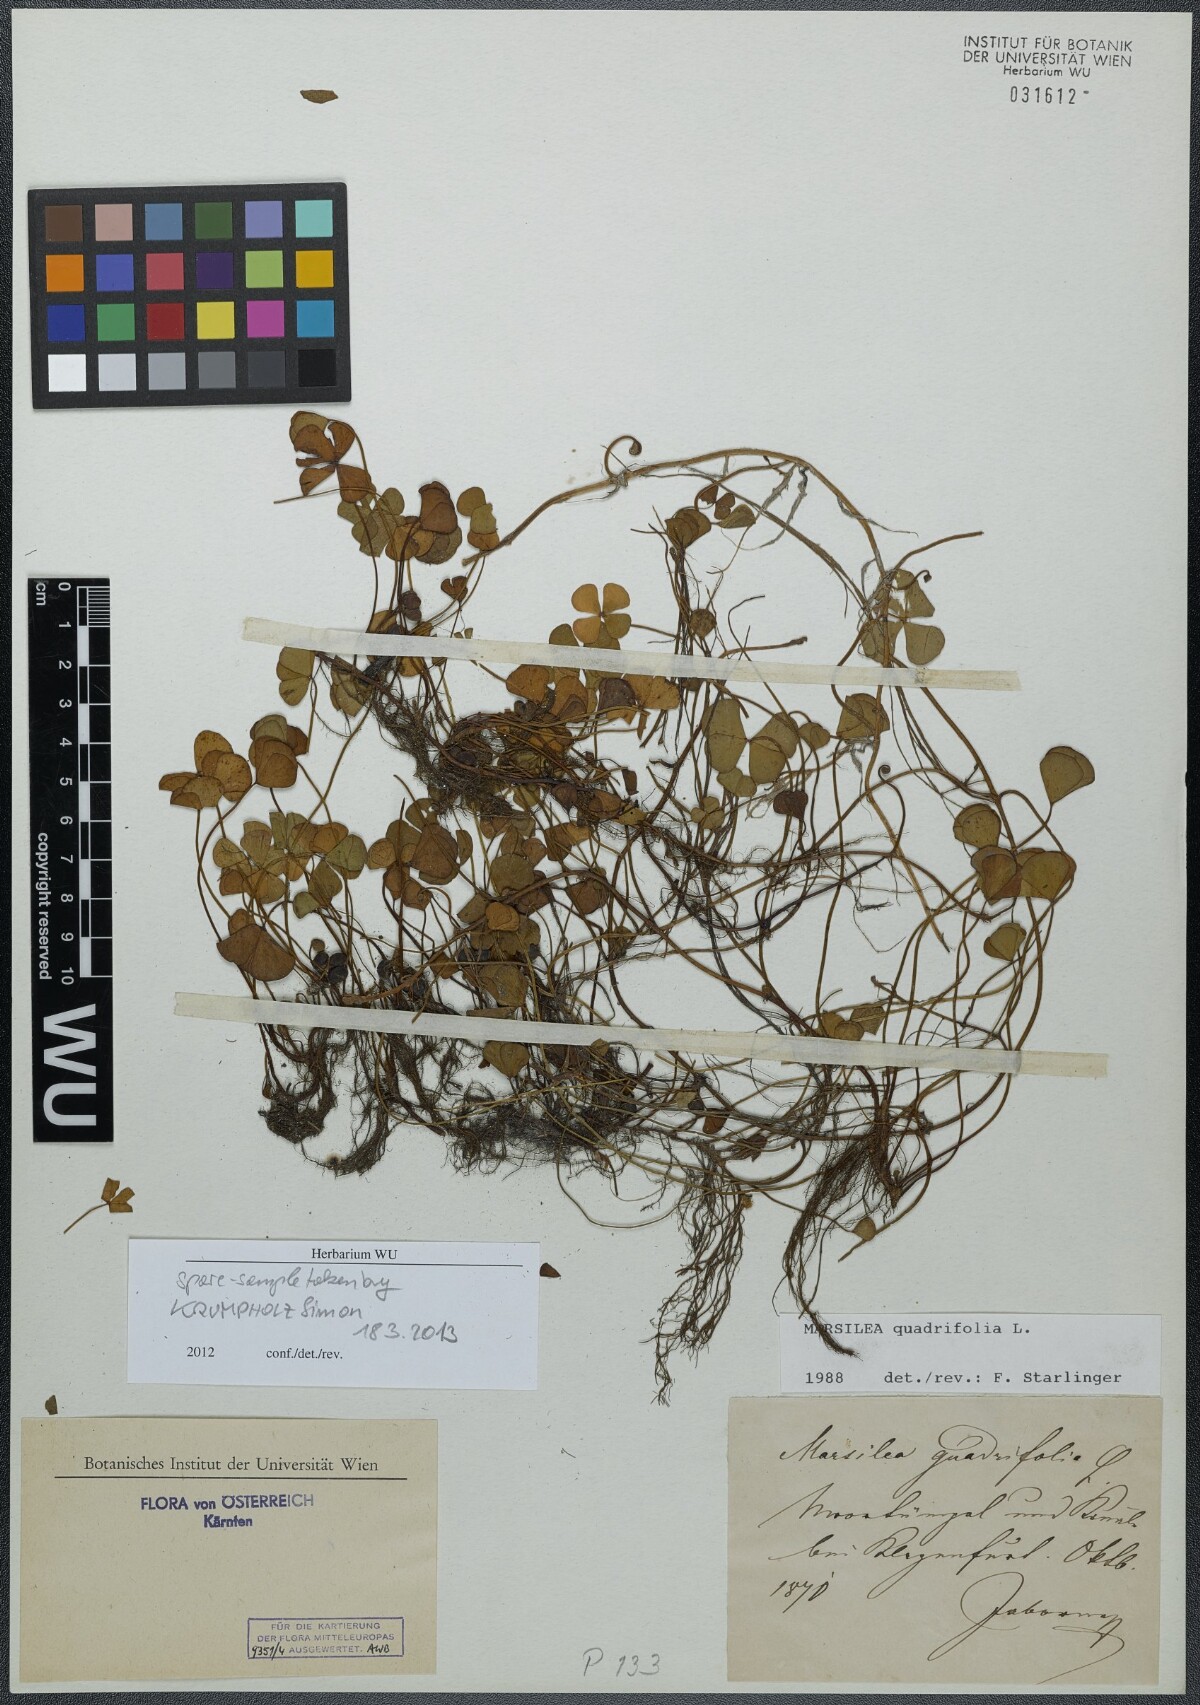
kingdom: Plantae
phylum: Tracheophyta
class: Polypodiopsida
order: Salviniales
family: Marsileaceae
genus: Marsilea
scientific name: Marsilea quadrifolia
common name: Water shamrock
